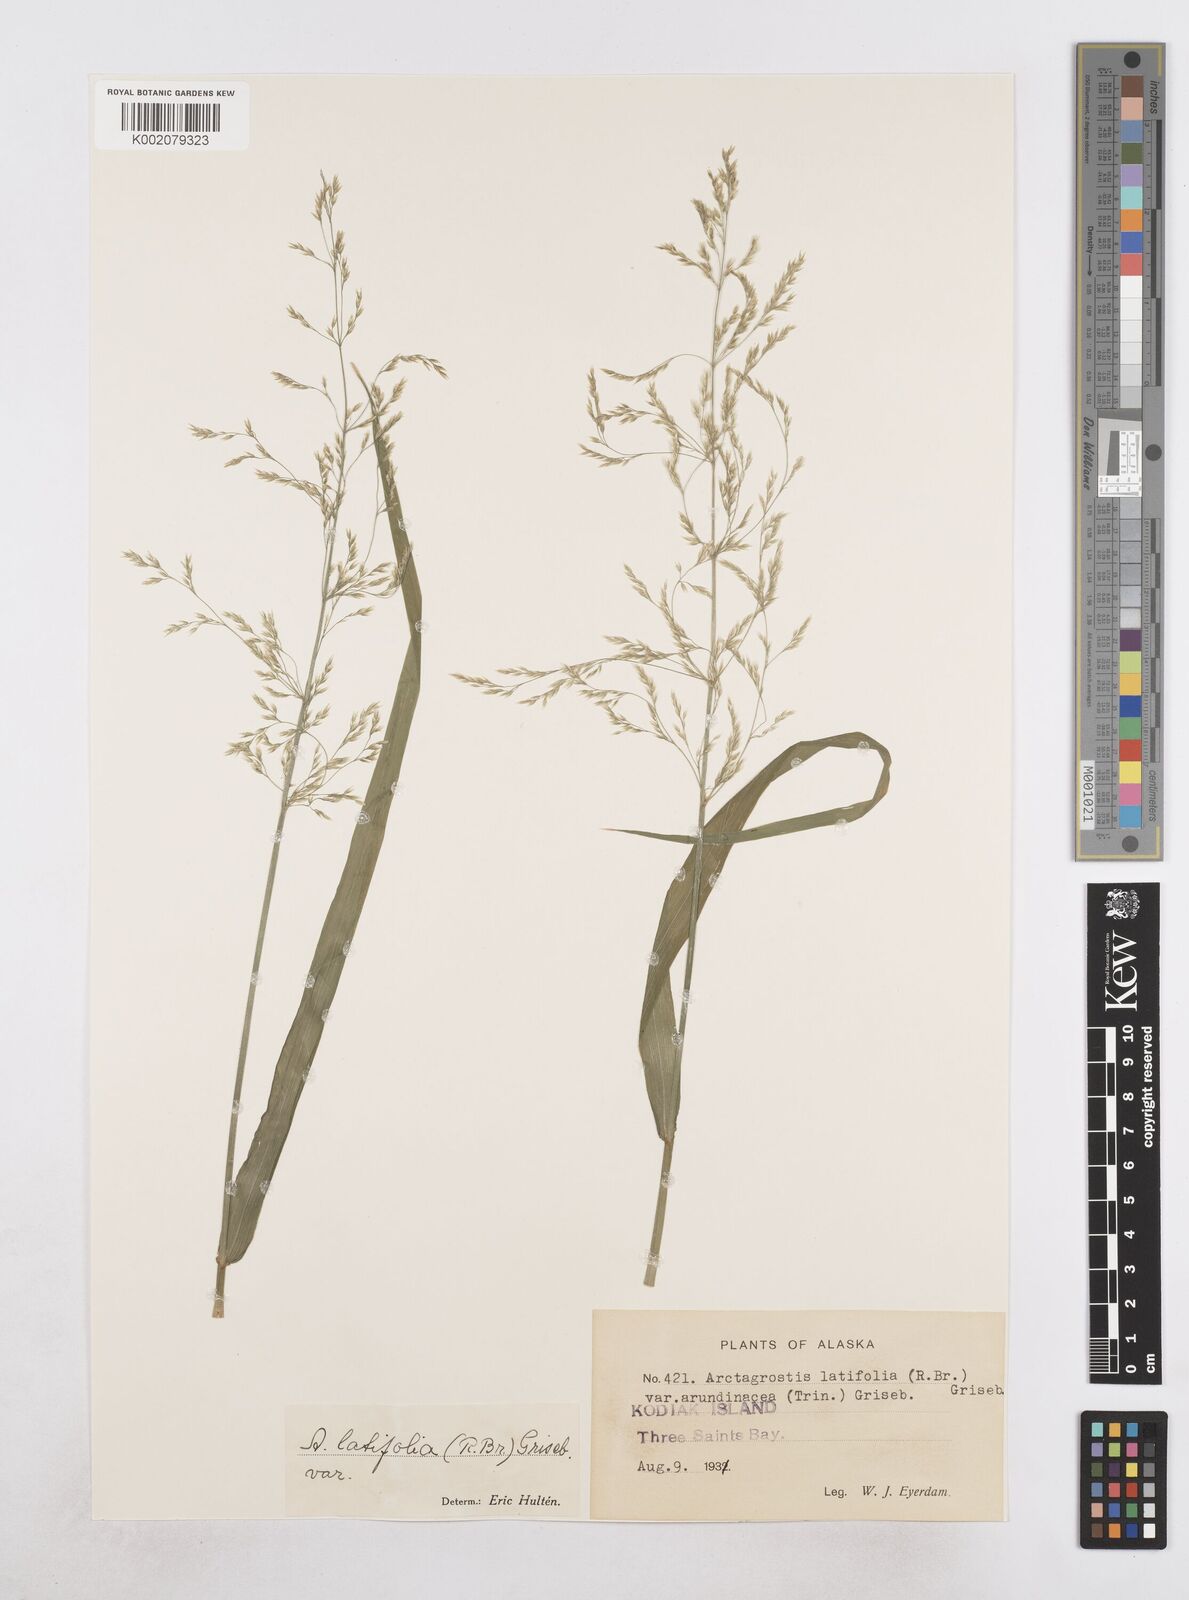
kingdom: Plantae
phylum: Tracheophyta
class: Liliopsida
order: Poales
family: Poaceae
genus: Arctagrostis
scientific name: Arctagrostis arundinacea
